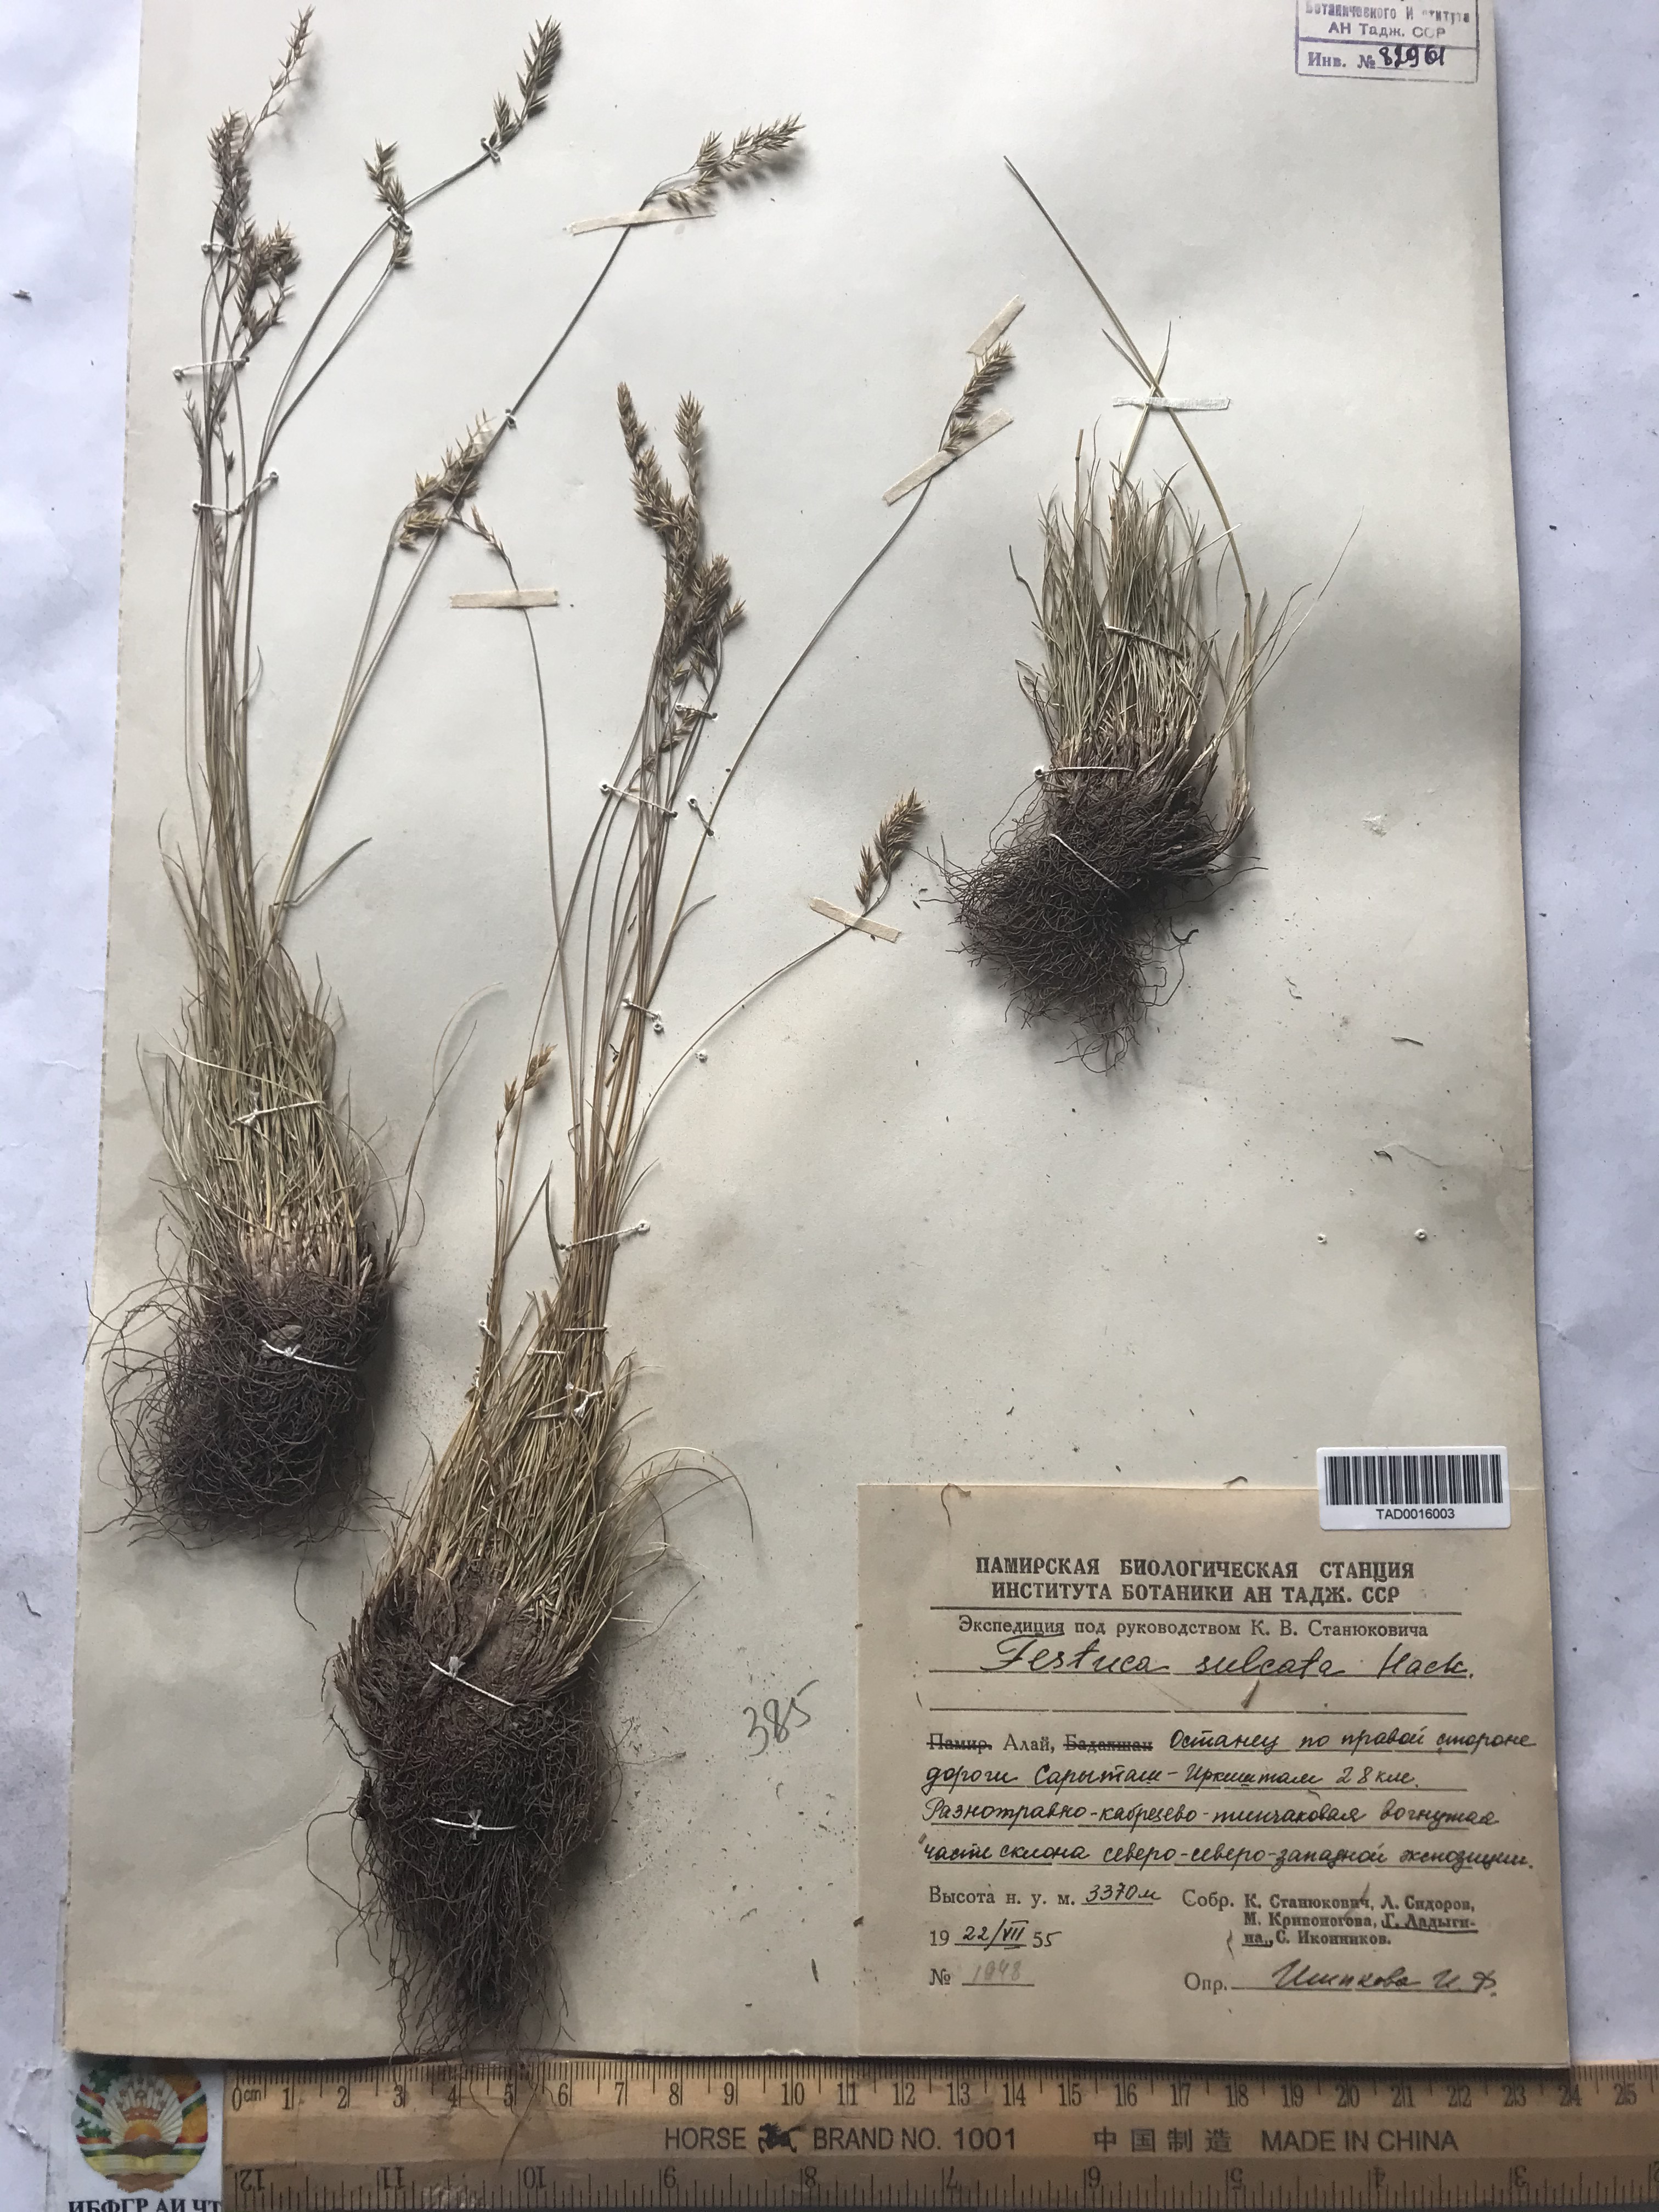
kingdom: Plantae
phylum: Tracheophyta
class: Liliopsida
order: Poales
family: Poaceae
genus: Festuca
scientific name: Festuca sulcata
